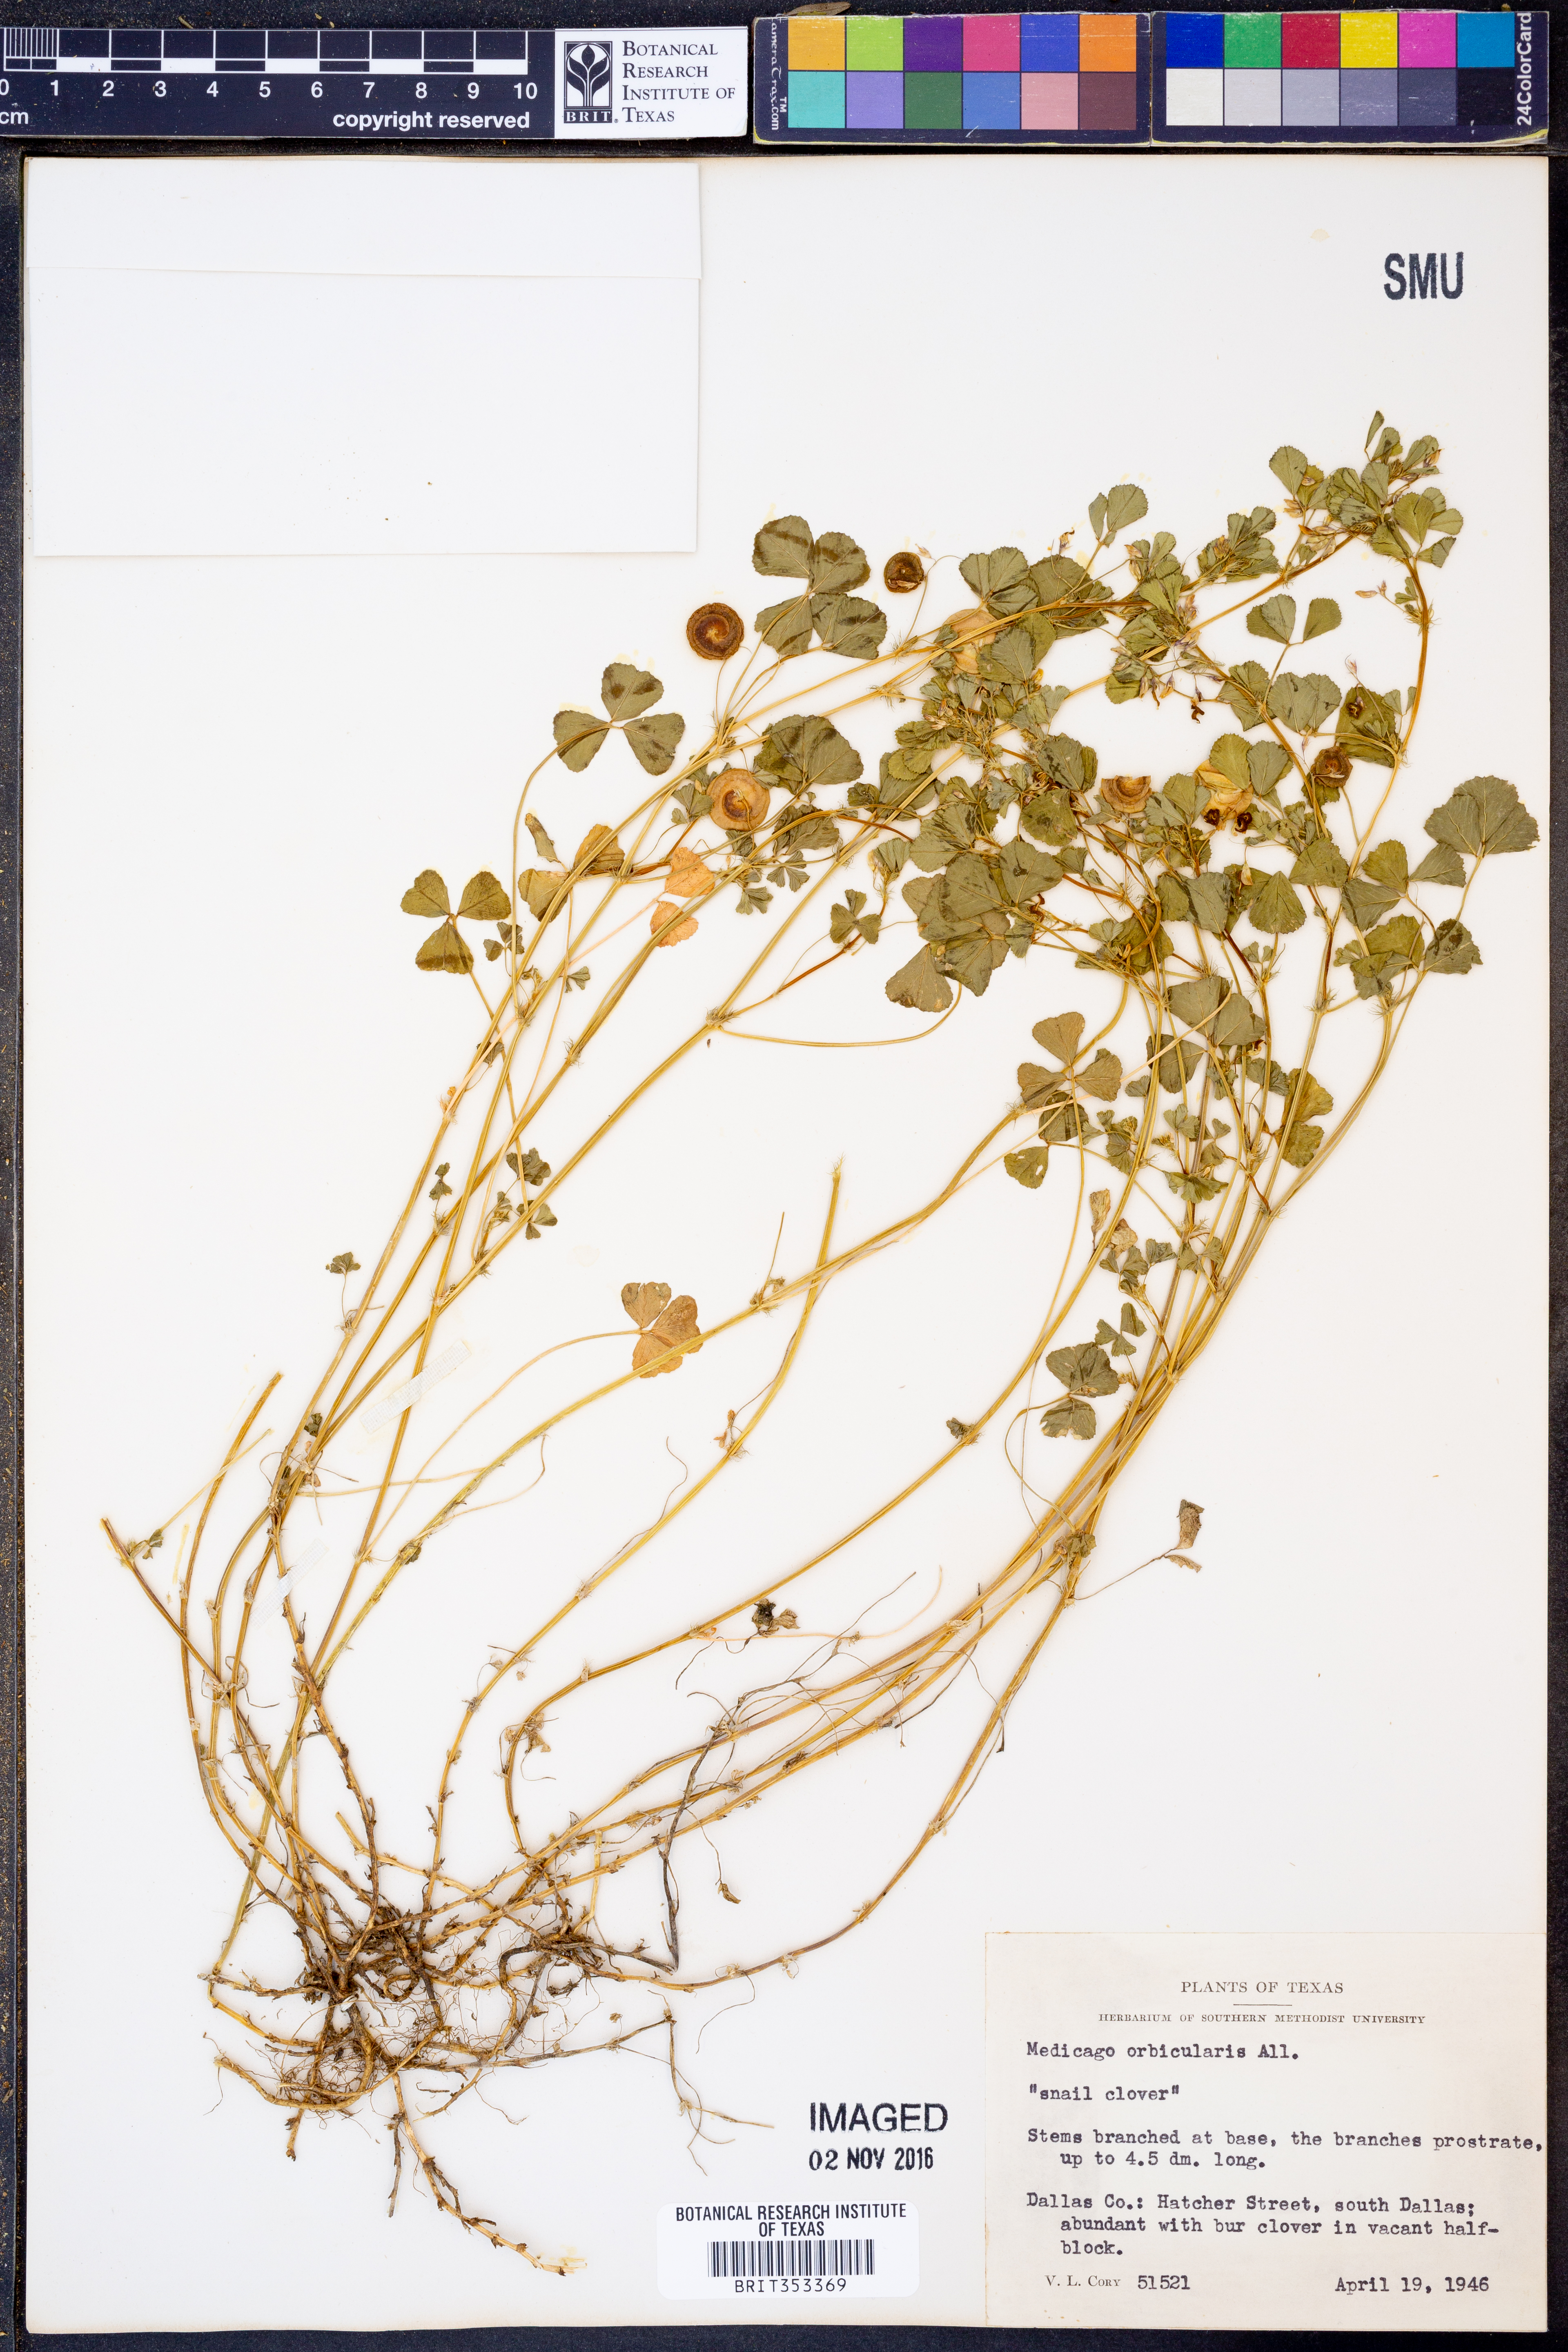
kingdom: Plantae
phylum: Tracheophyta
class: Magnoliopsida
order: Fabales
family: Fabaceae
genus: Medicago
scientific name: Medicago orbicularis
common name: Button medick
